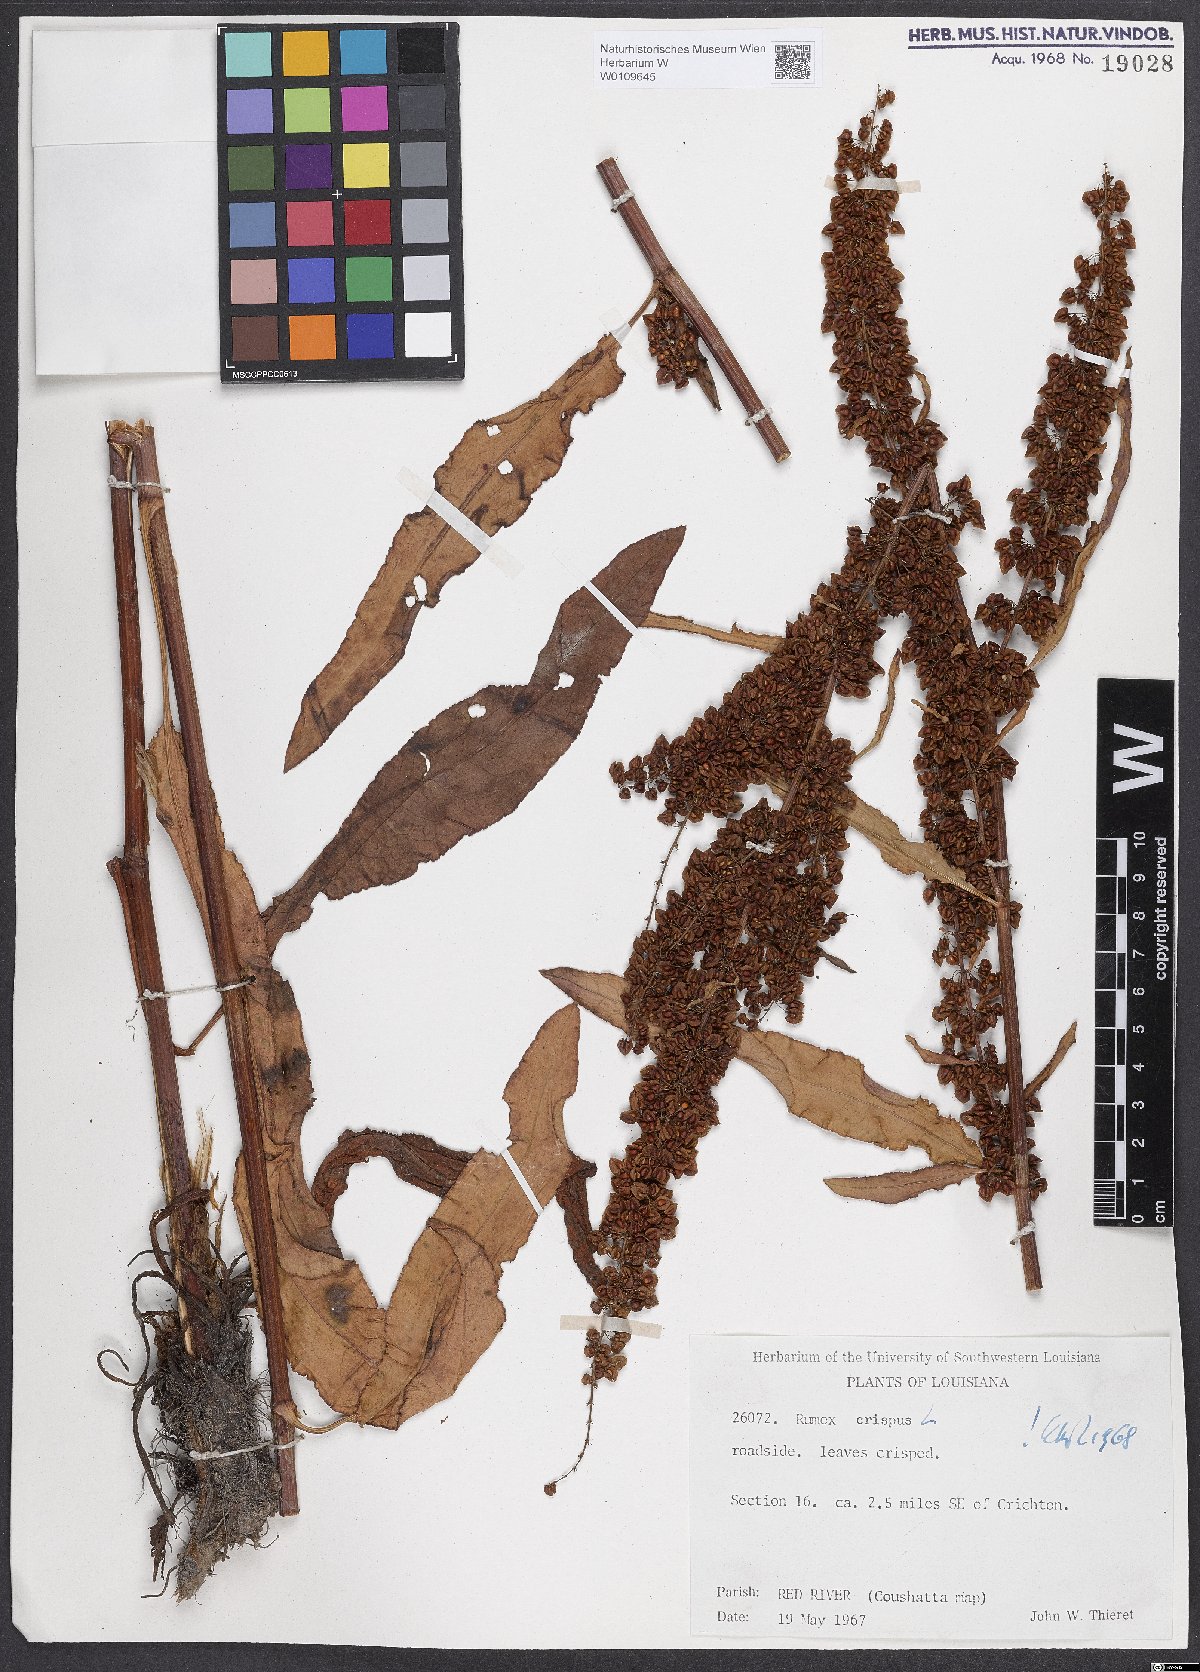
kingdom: Plantae
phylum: Tracheophyta
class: Magnoliopsida
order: Caryophyllales
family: Polygonaceae
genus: Rumex
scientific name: Rumex crispus
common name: Curled dock
